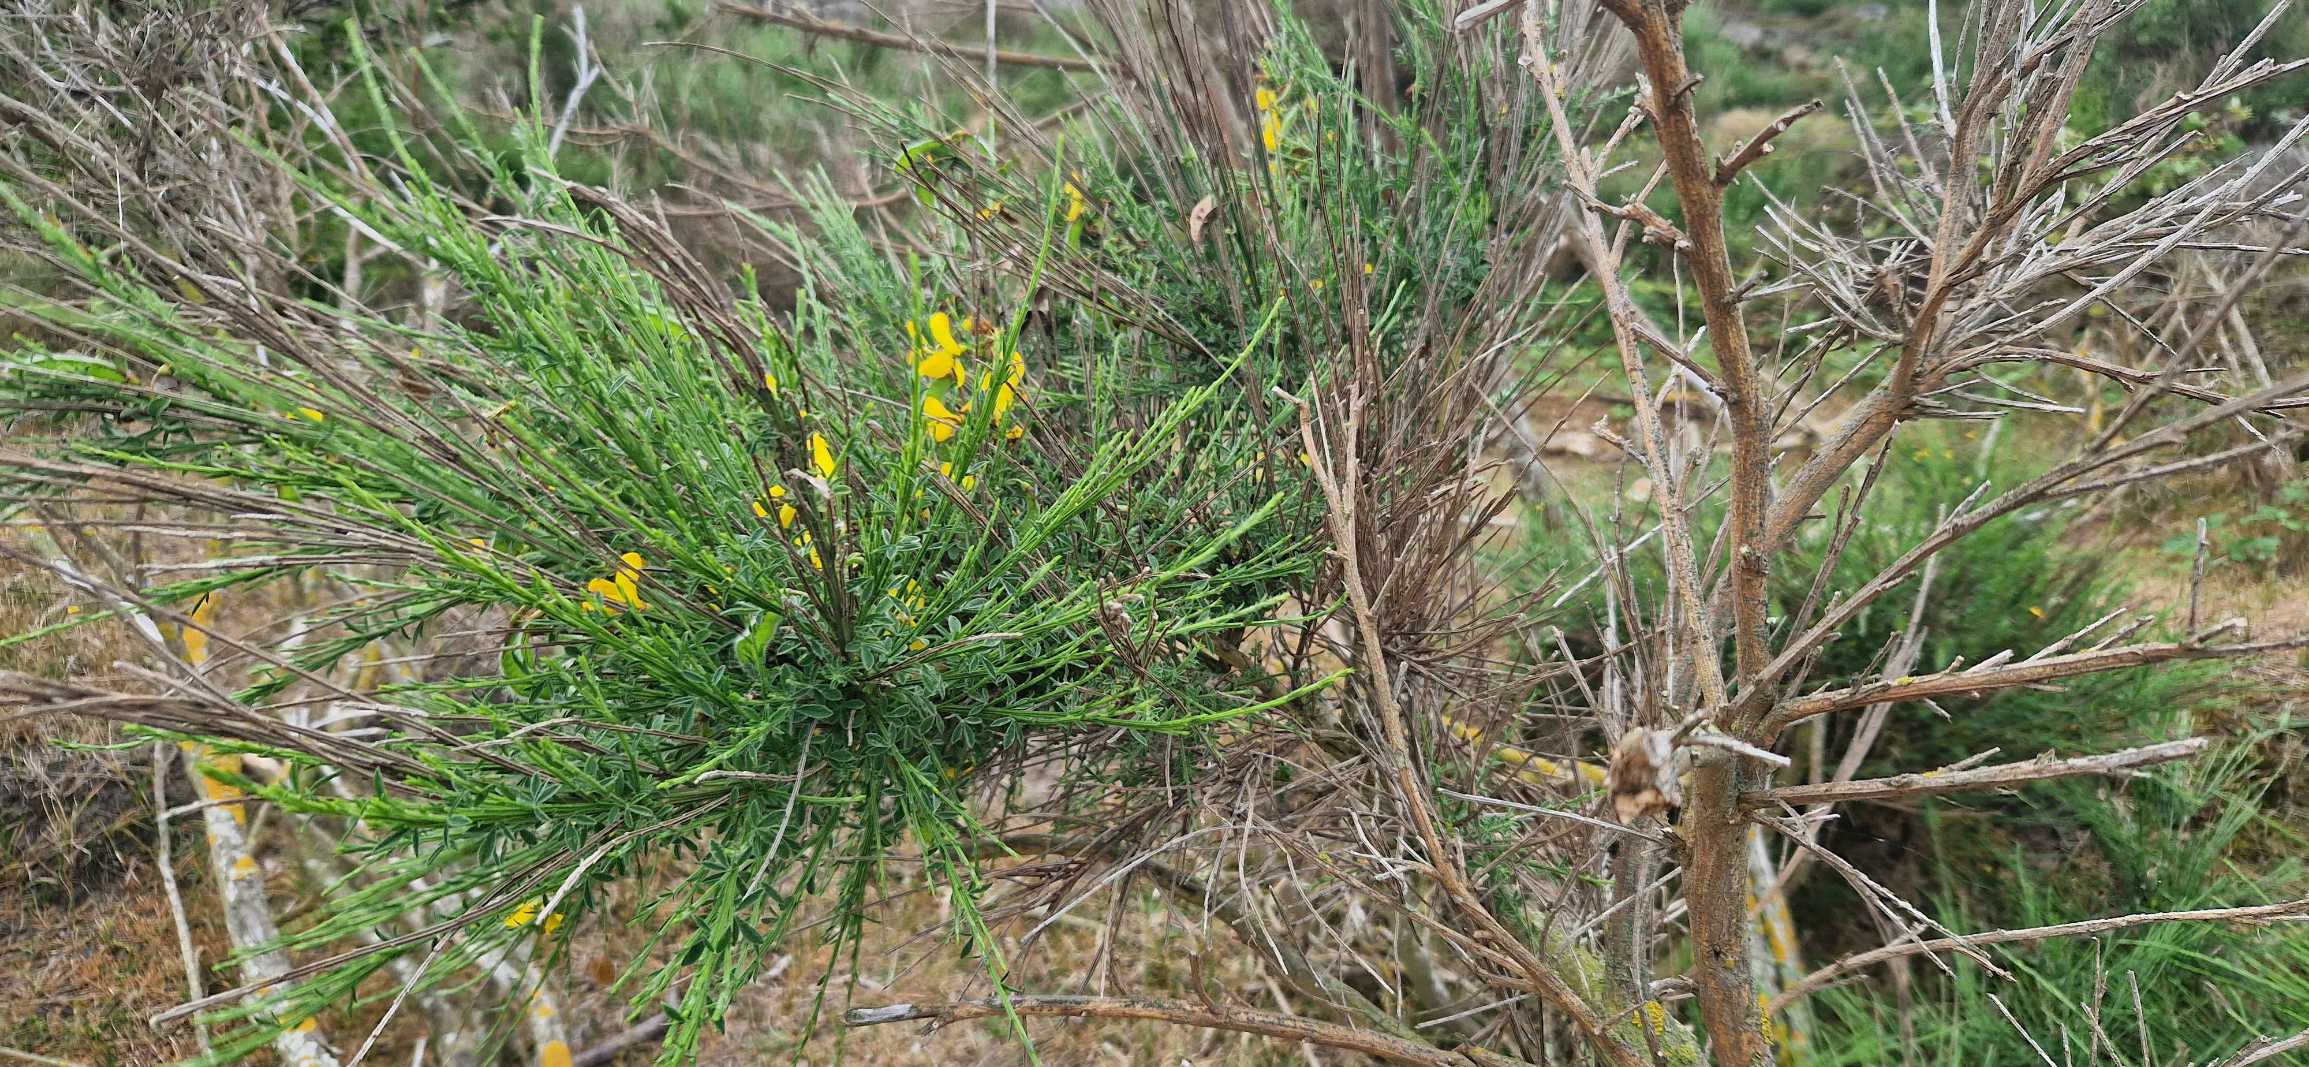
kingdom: Plantae
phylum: Tracheophyta
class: Magnoliopsida
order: Fabales
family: Fabaceae
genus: Cytisus
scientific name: Cytisus scoparius
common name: Almindelig gyvel
